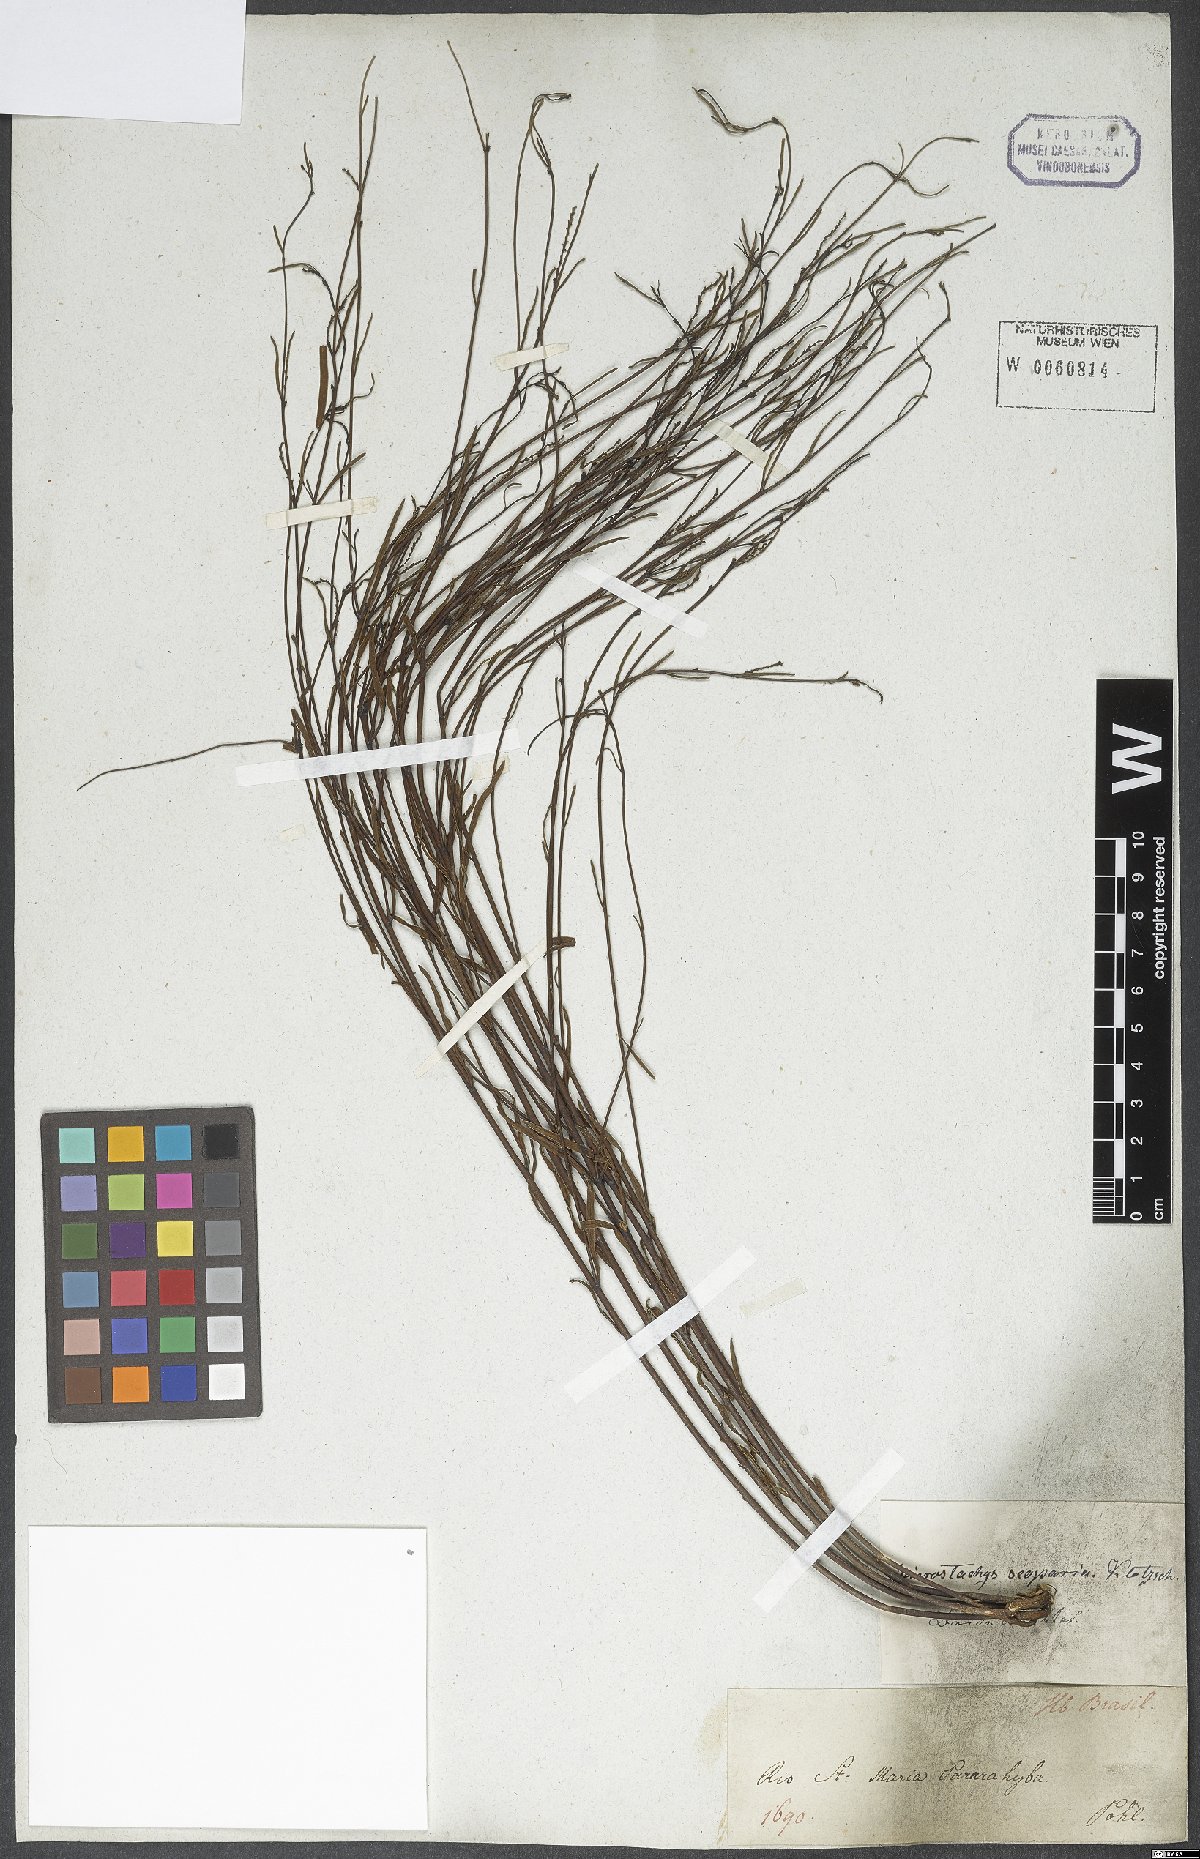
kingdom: Plantae
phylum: Tracheophyta
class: Magnoliopsida
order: Malpighiales
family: Euphorbiaceae
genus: Microstachys
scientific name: Microstachys bidentata
